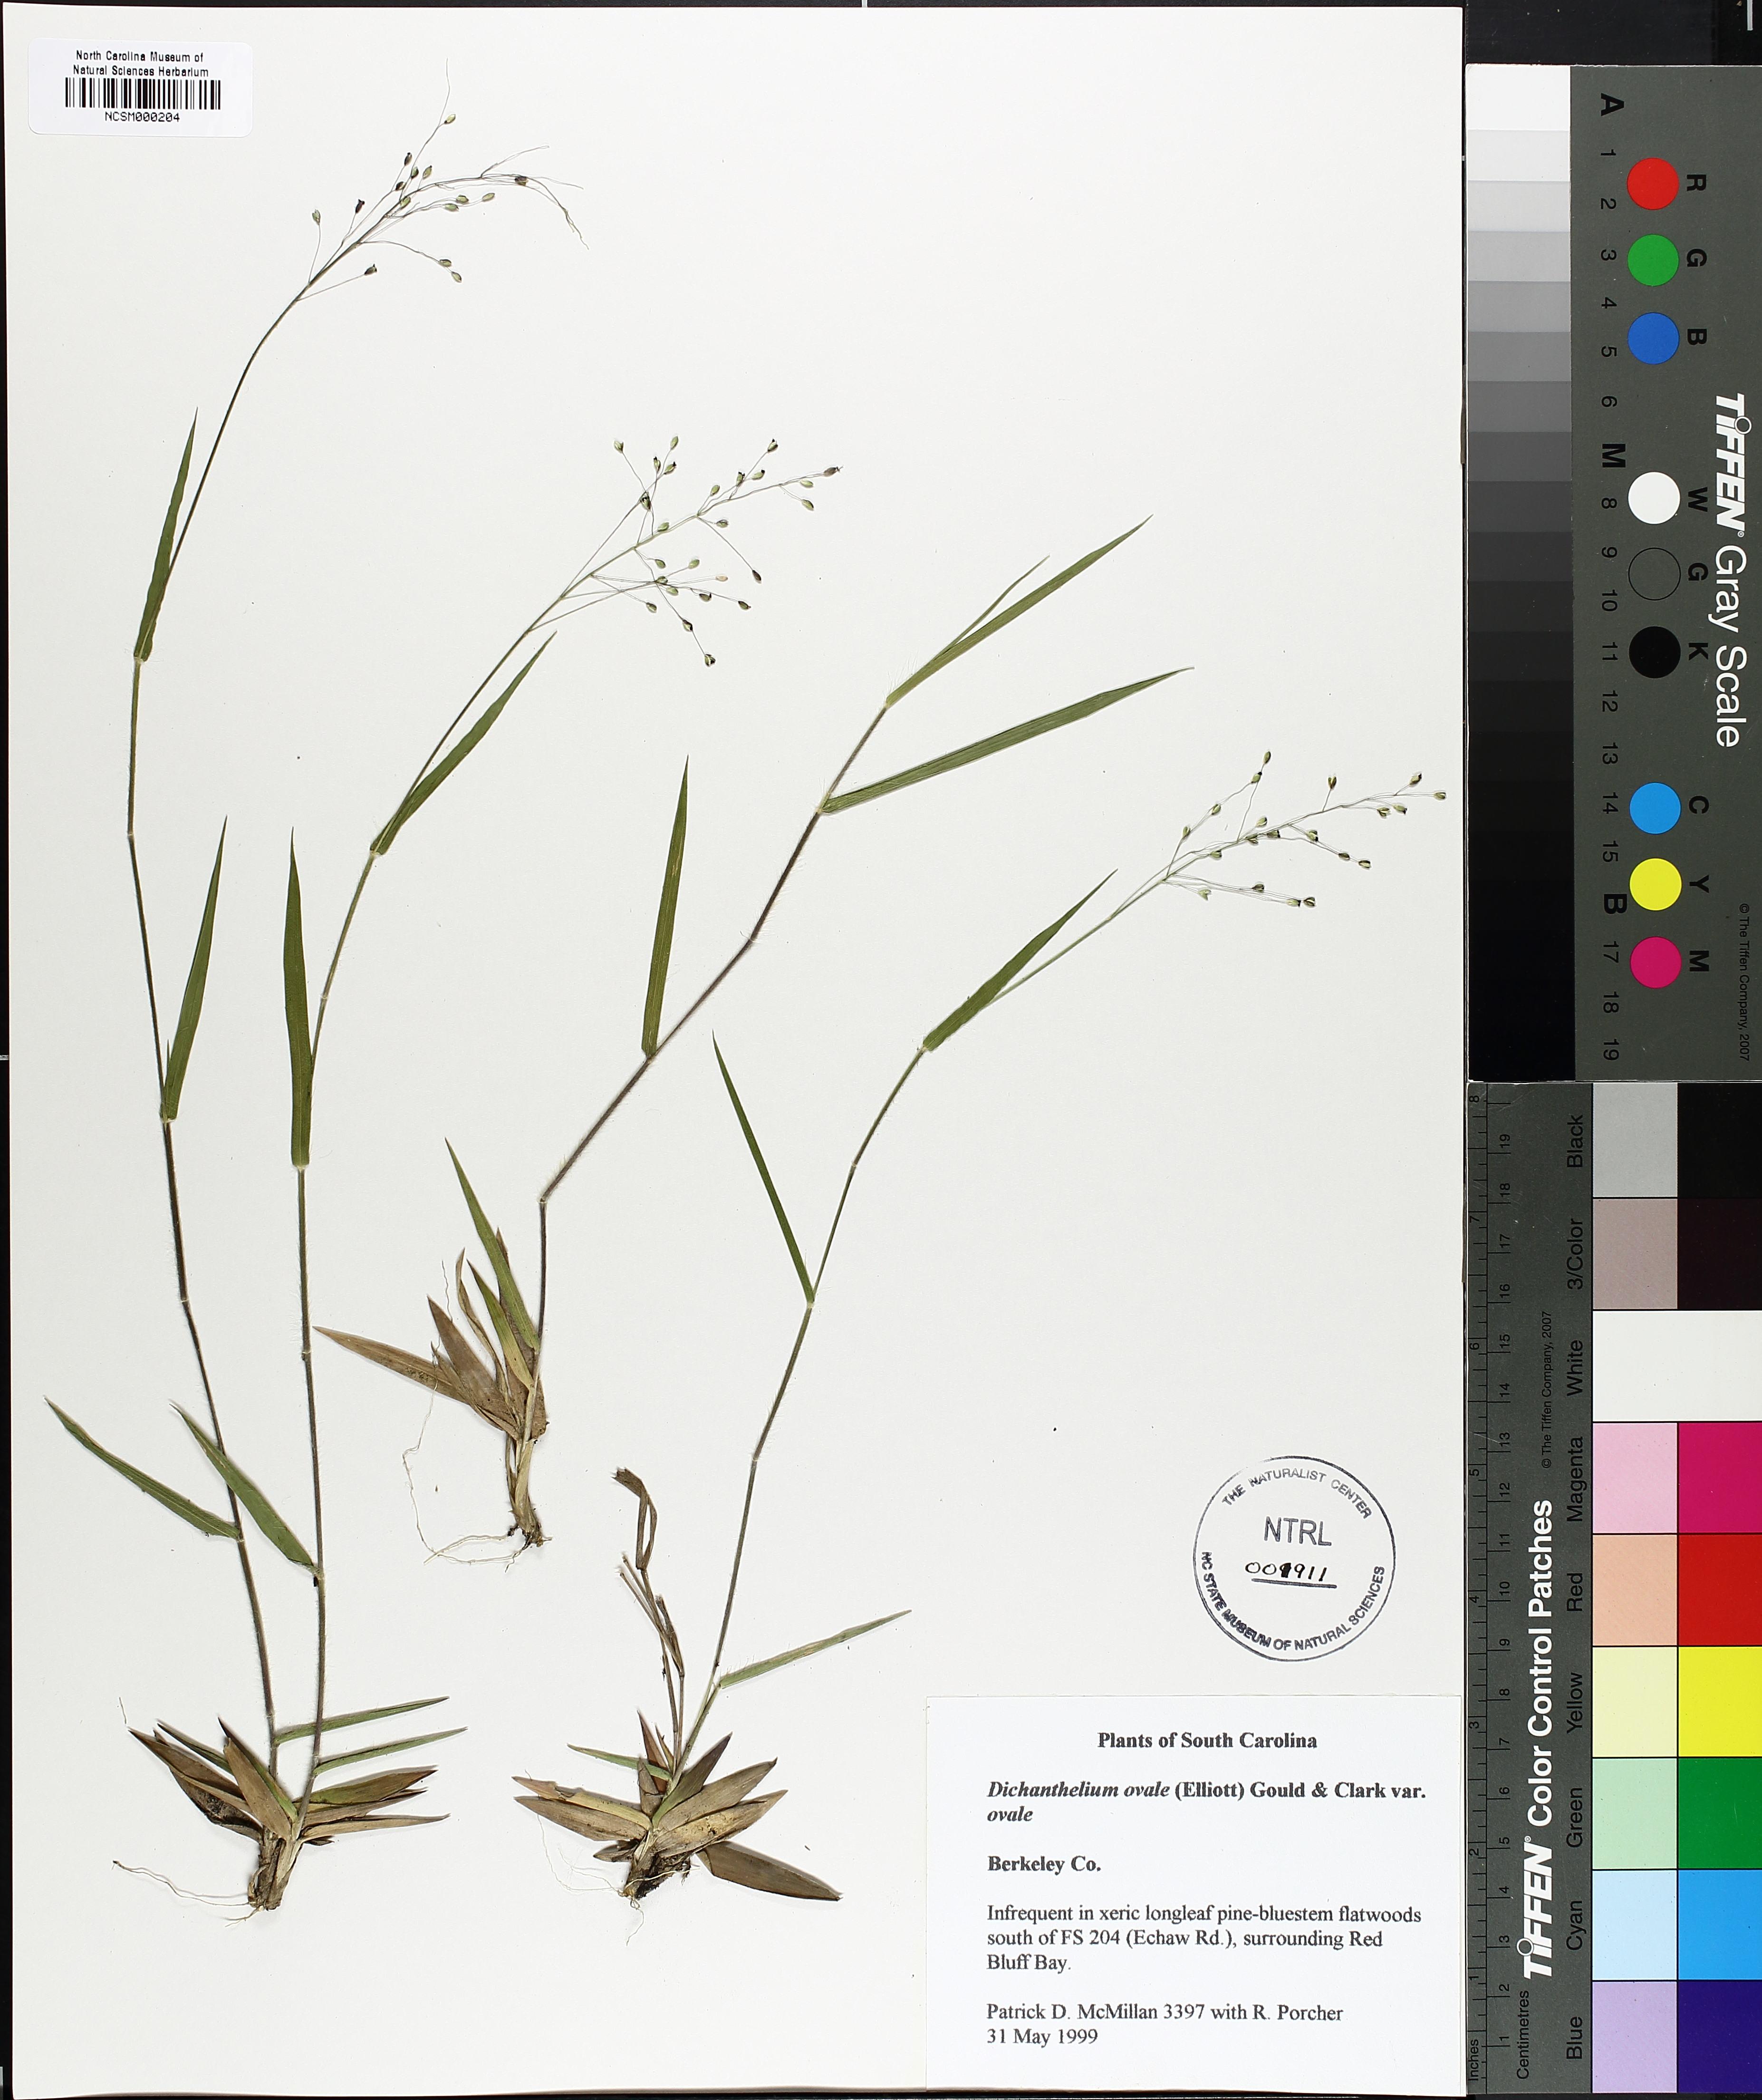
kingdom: Plantae
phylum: Tracheophyta
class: Liliopsida
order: Poales
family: Poaceae
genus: Dichanthelium
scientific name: Dichanthelium ovale
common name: Stiff-leaved panicgrass
